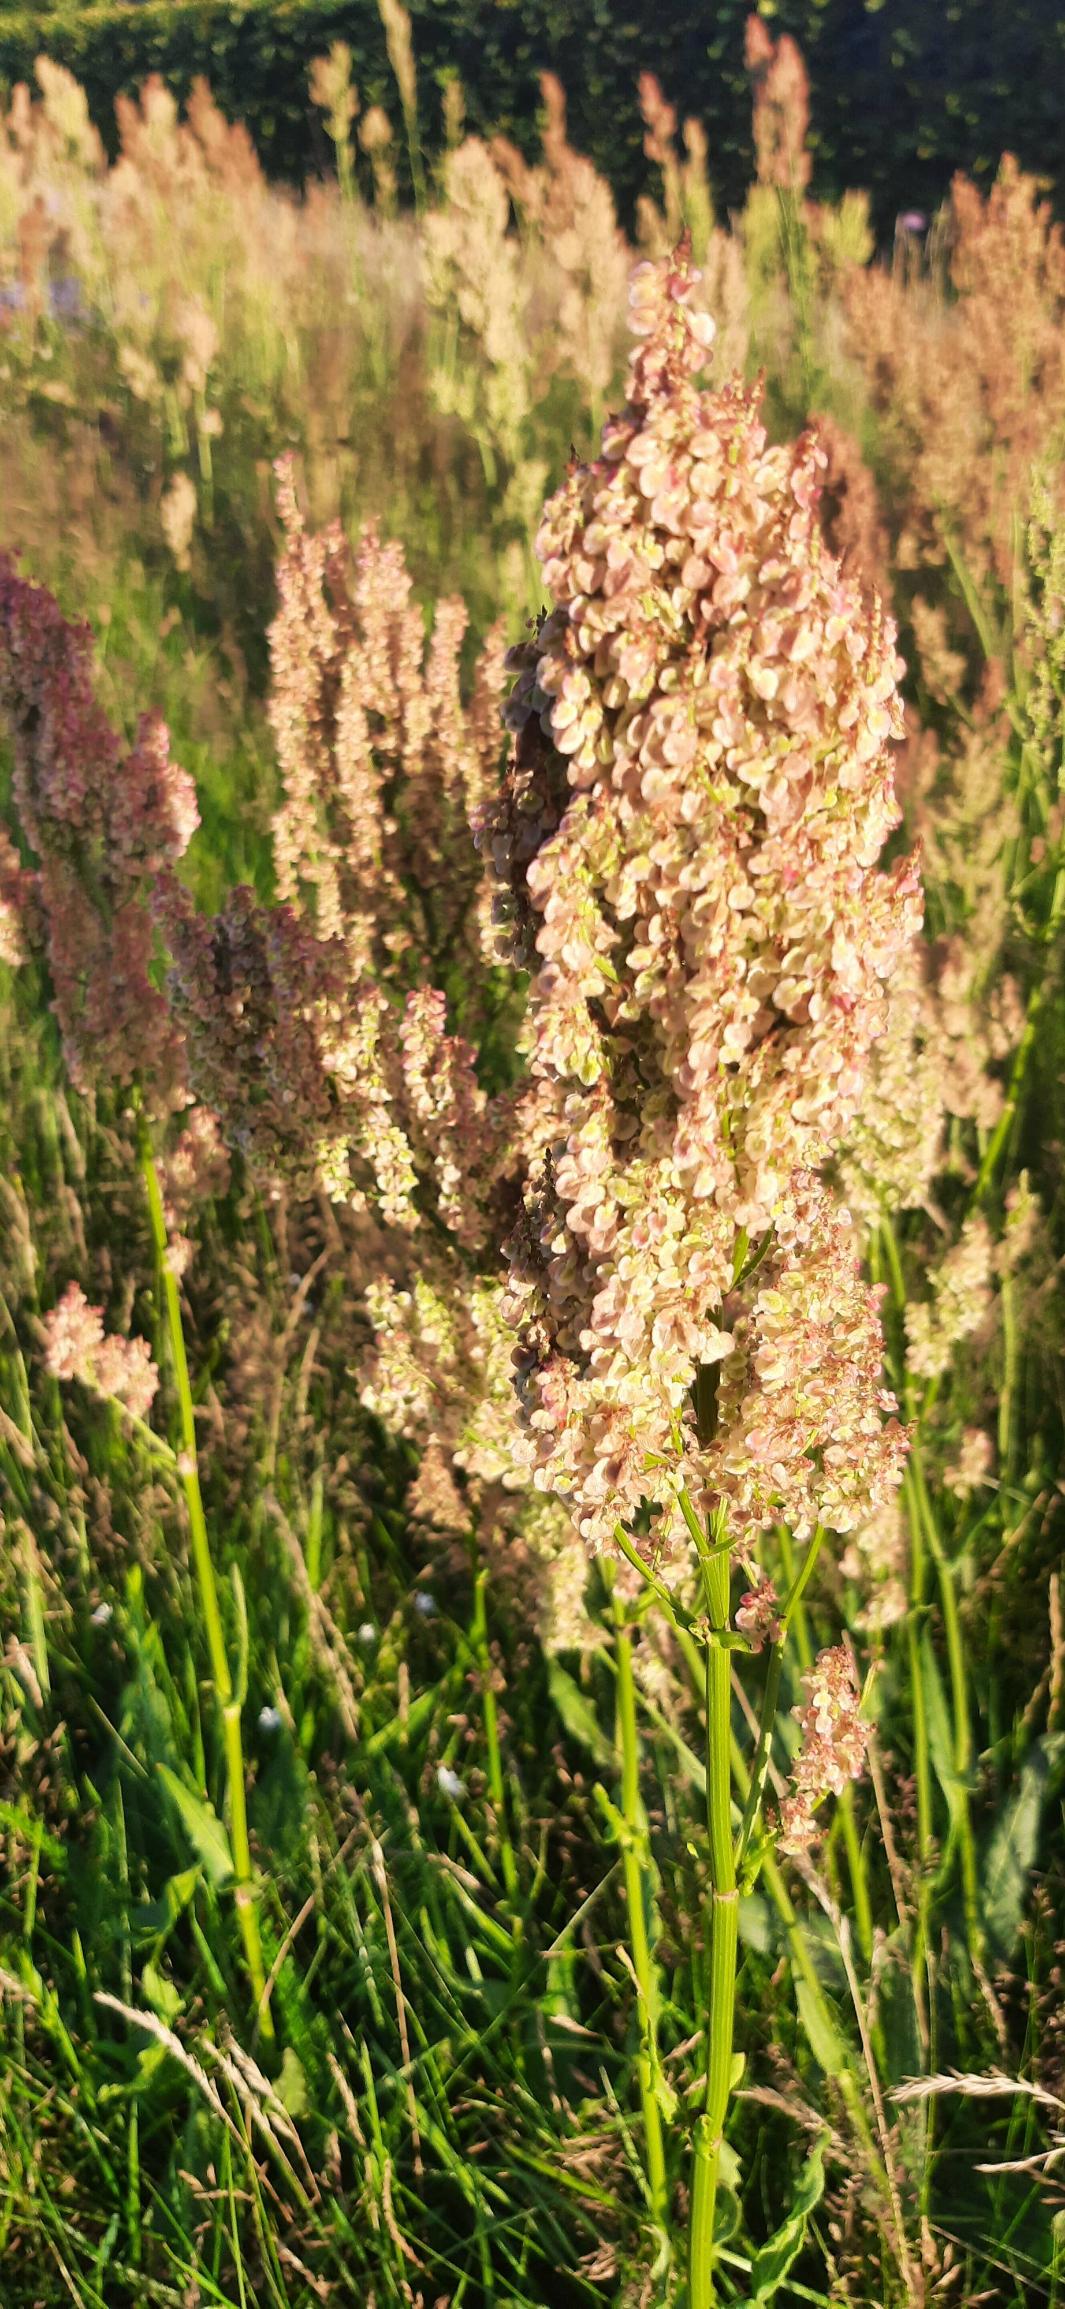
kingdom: Plantae
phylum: Tracheophyta
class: Magnoliopsida
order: Caryophyllales
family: Polygonaceae
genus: Rumex
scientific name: Rumex thyrsiflorus
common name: Dusk-syre
